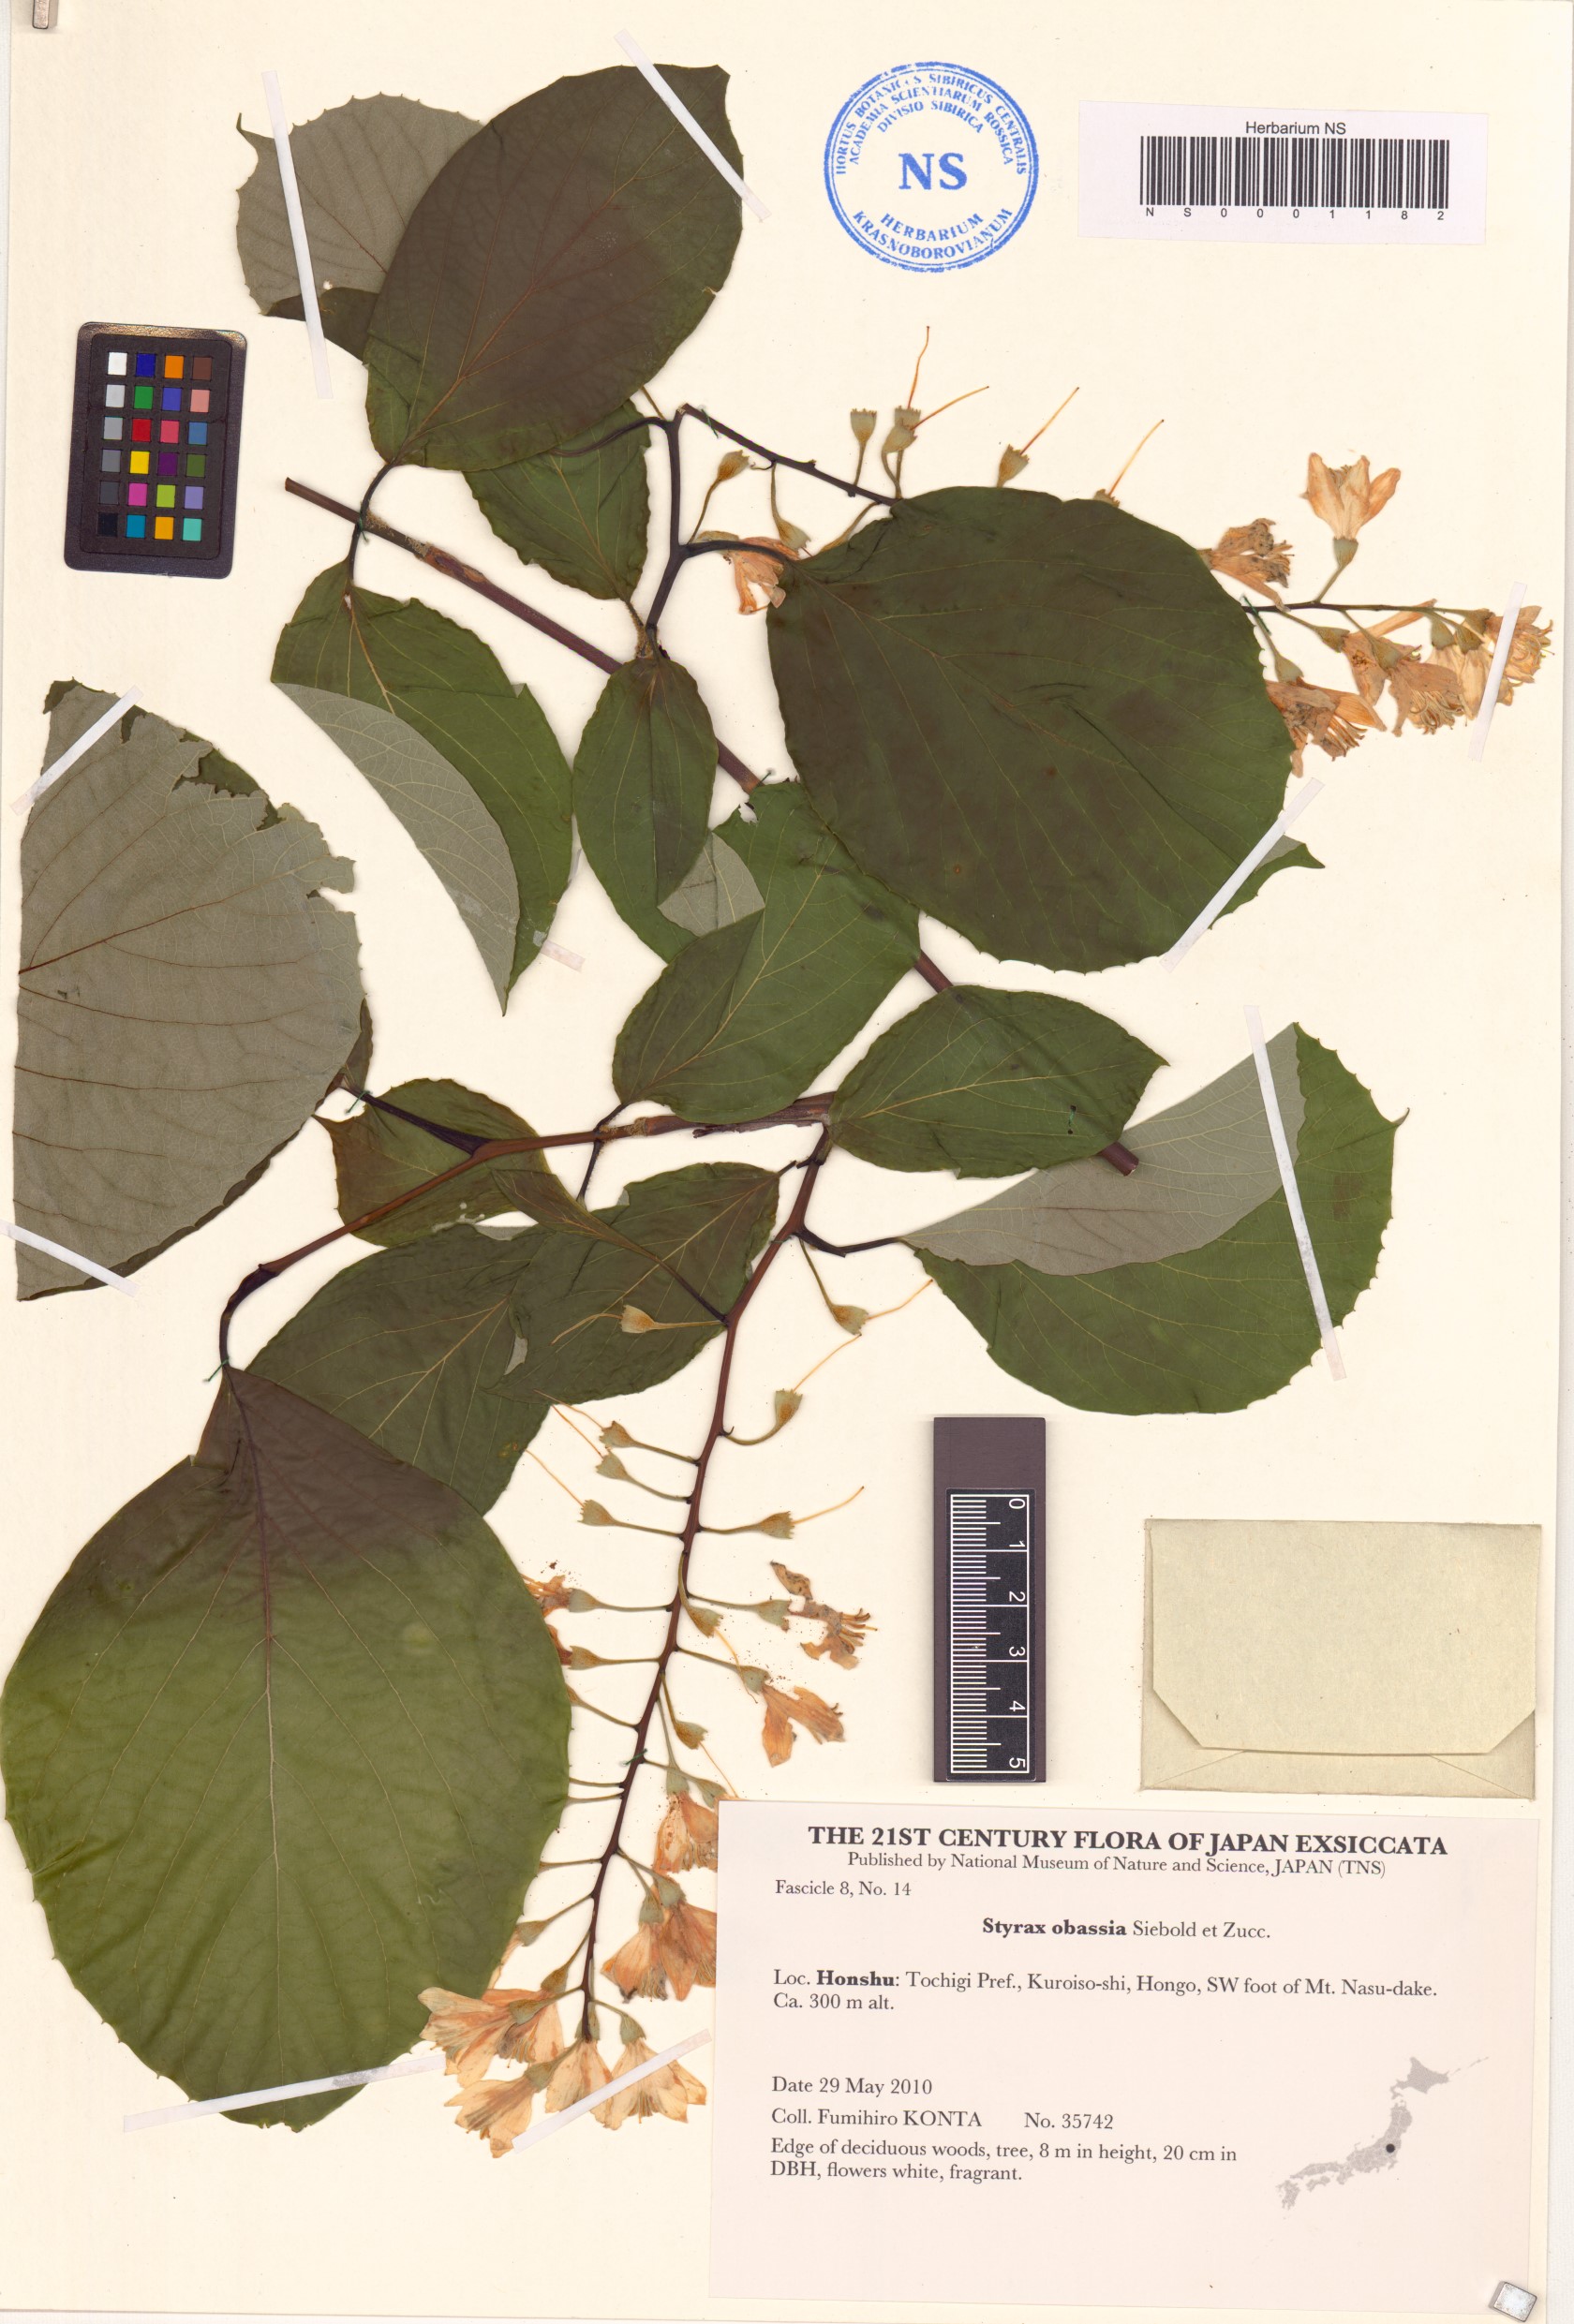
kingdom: Plantae
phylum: Tracheophyta
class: Magnoliopsida
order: Ericales
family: Styracaceae
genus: Styrax
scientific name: Styrax obassia
